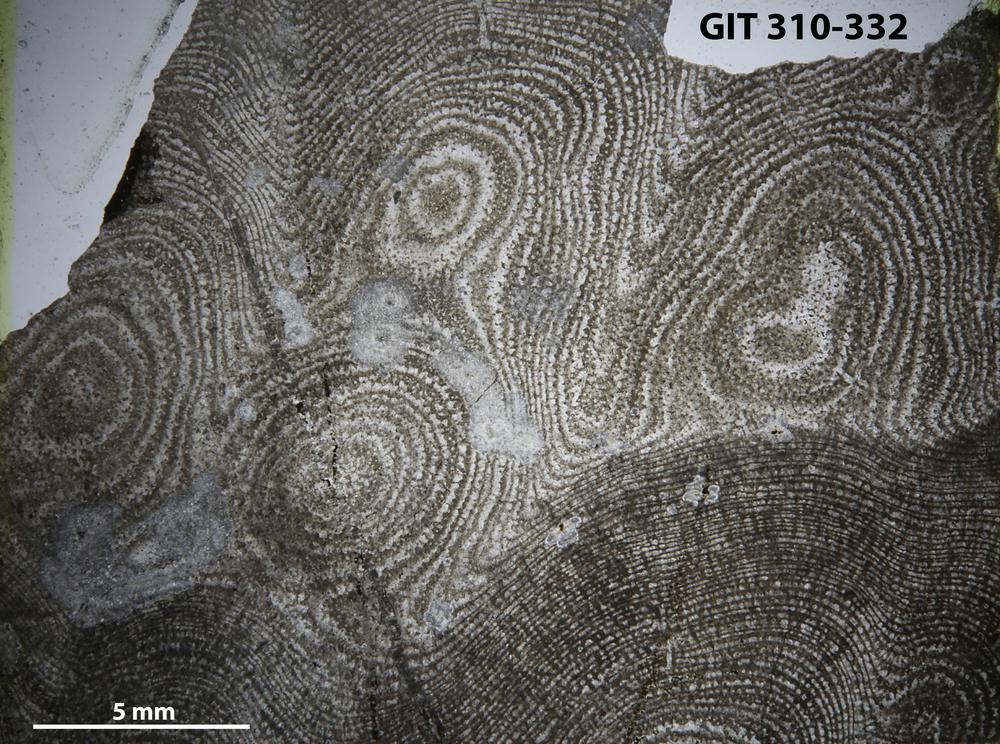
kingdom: Animalia
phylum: Porifera
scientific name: Porifera
